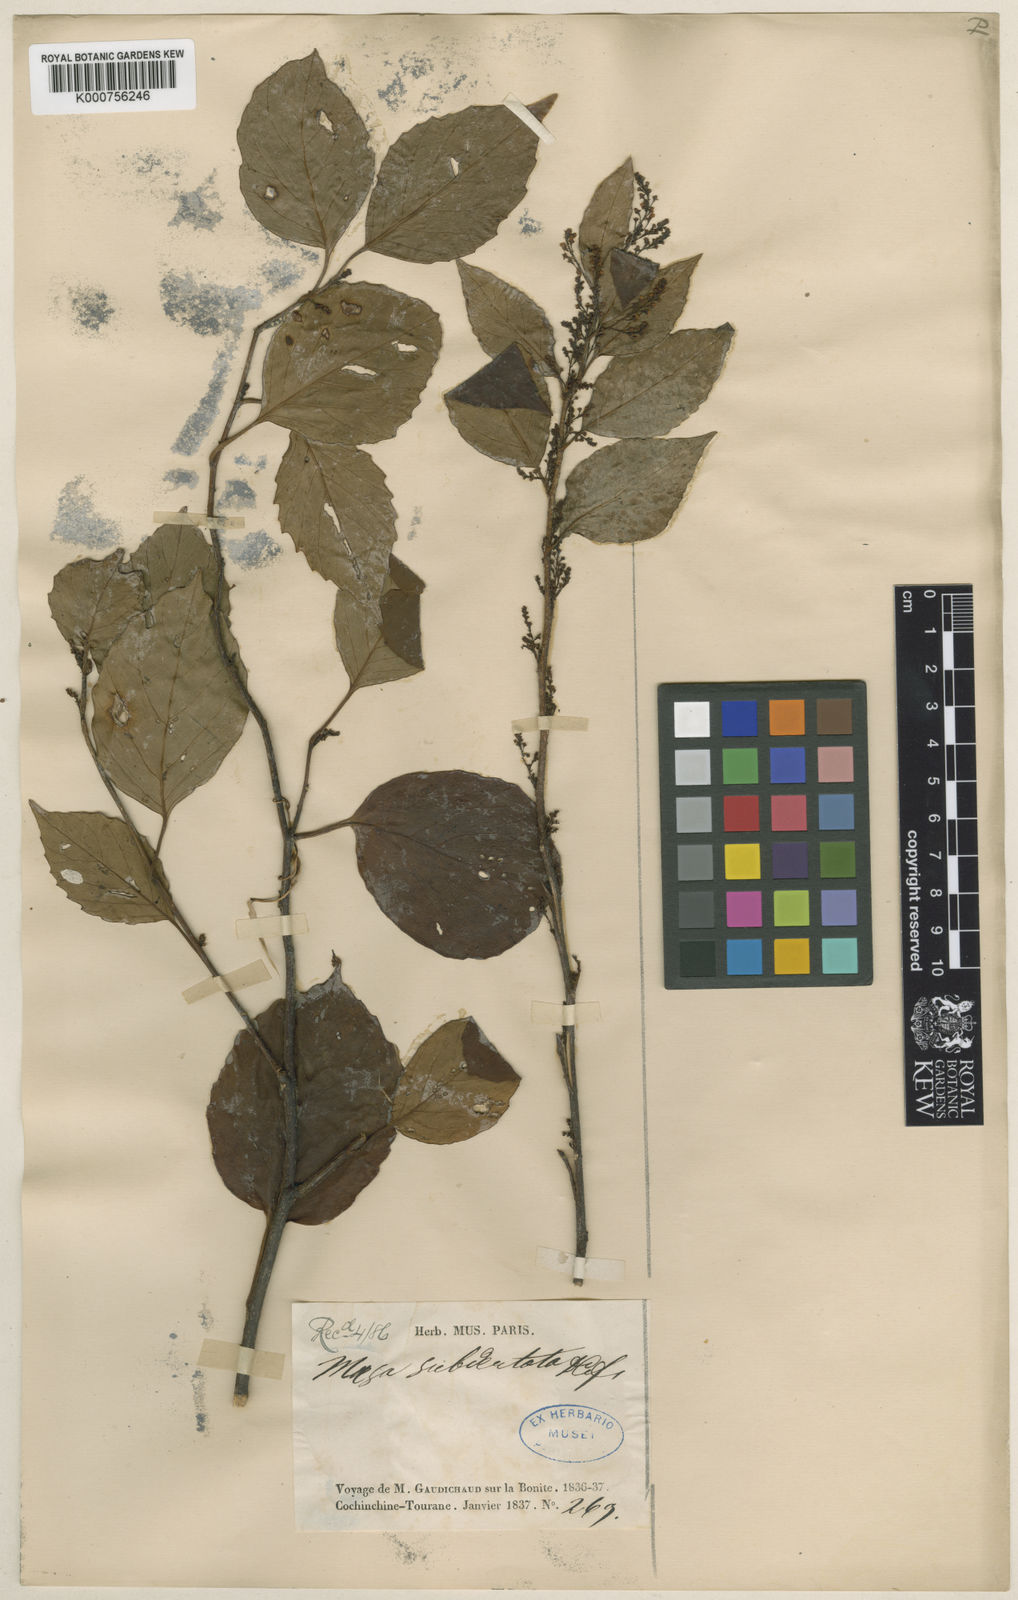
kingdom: Plantae
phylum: Tracheophyta
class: Magnoliopsida
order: Ericales
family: Primulaceae
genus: Maesa
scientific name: Maesa subdendata
